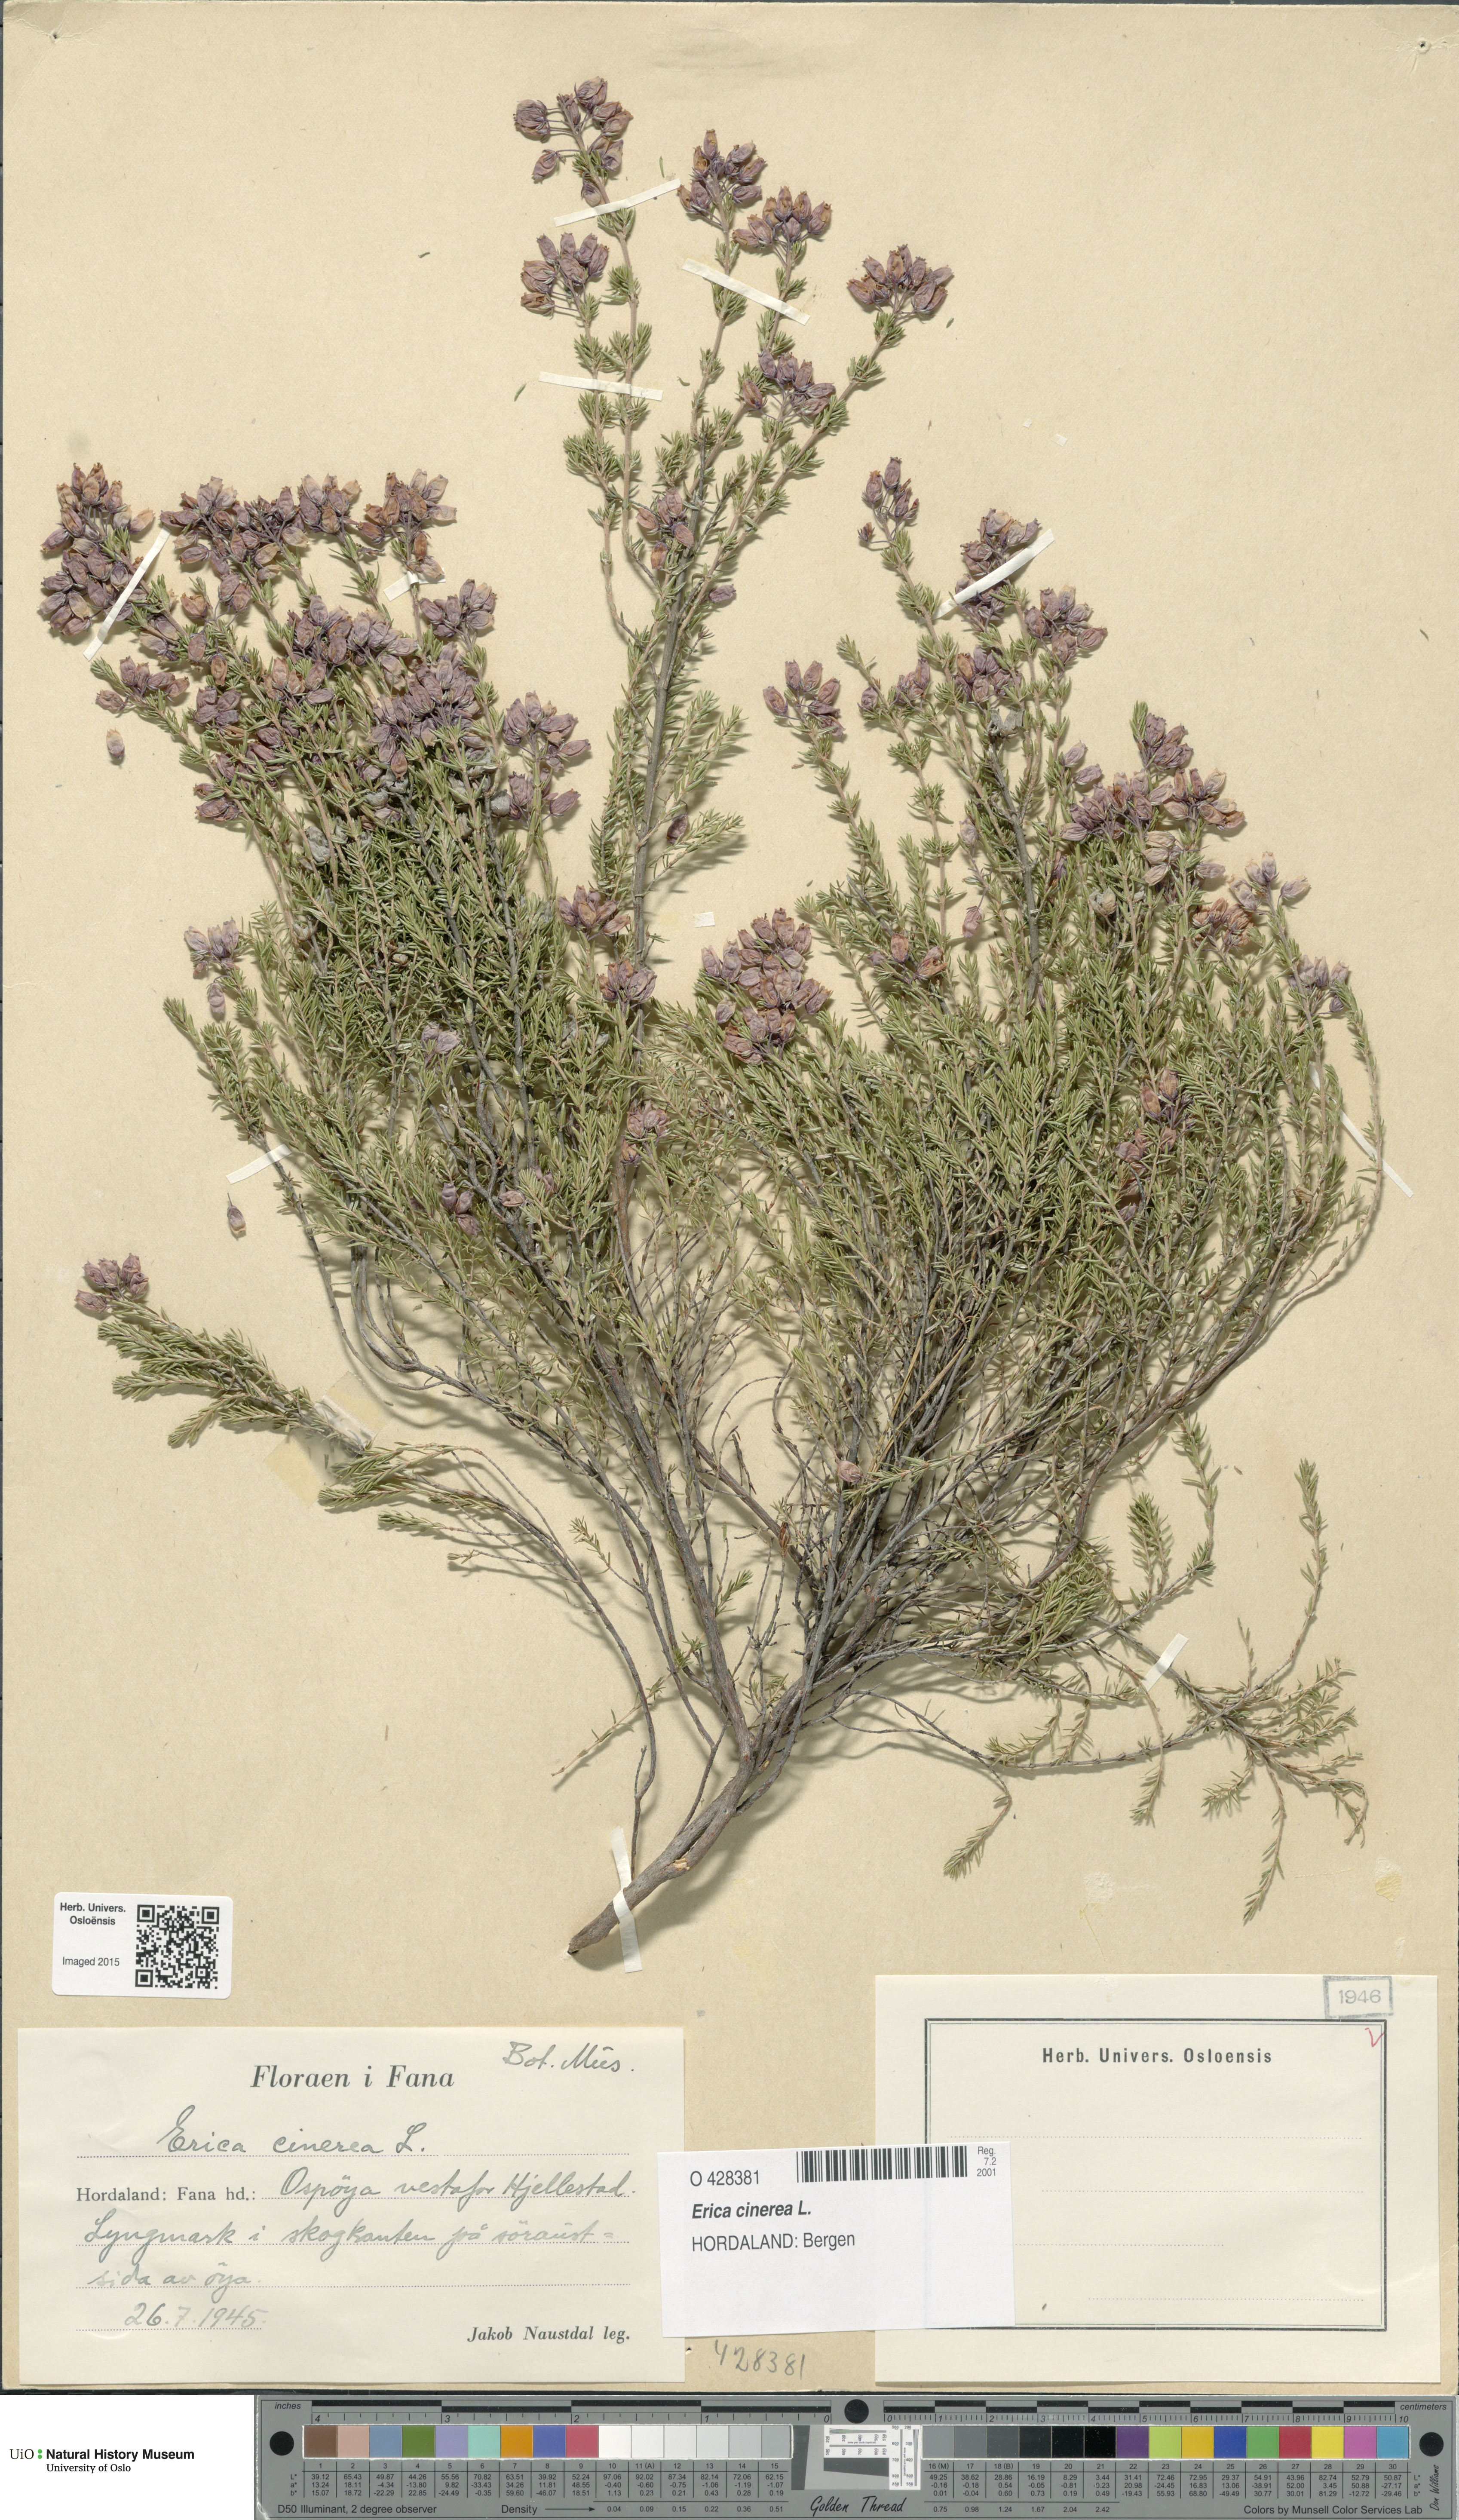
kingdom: Plantae
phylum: Tracheophyta
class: Magnoliopsida
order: Ericales
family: Ericaceae
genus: Erica
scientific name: Erica cinerea
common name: Bell heather
